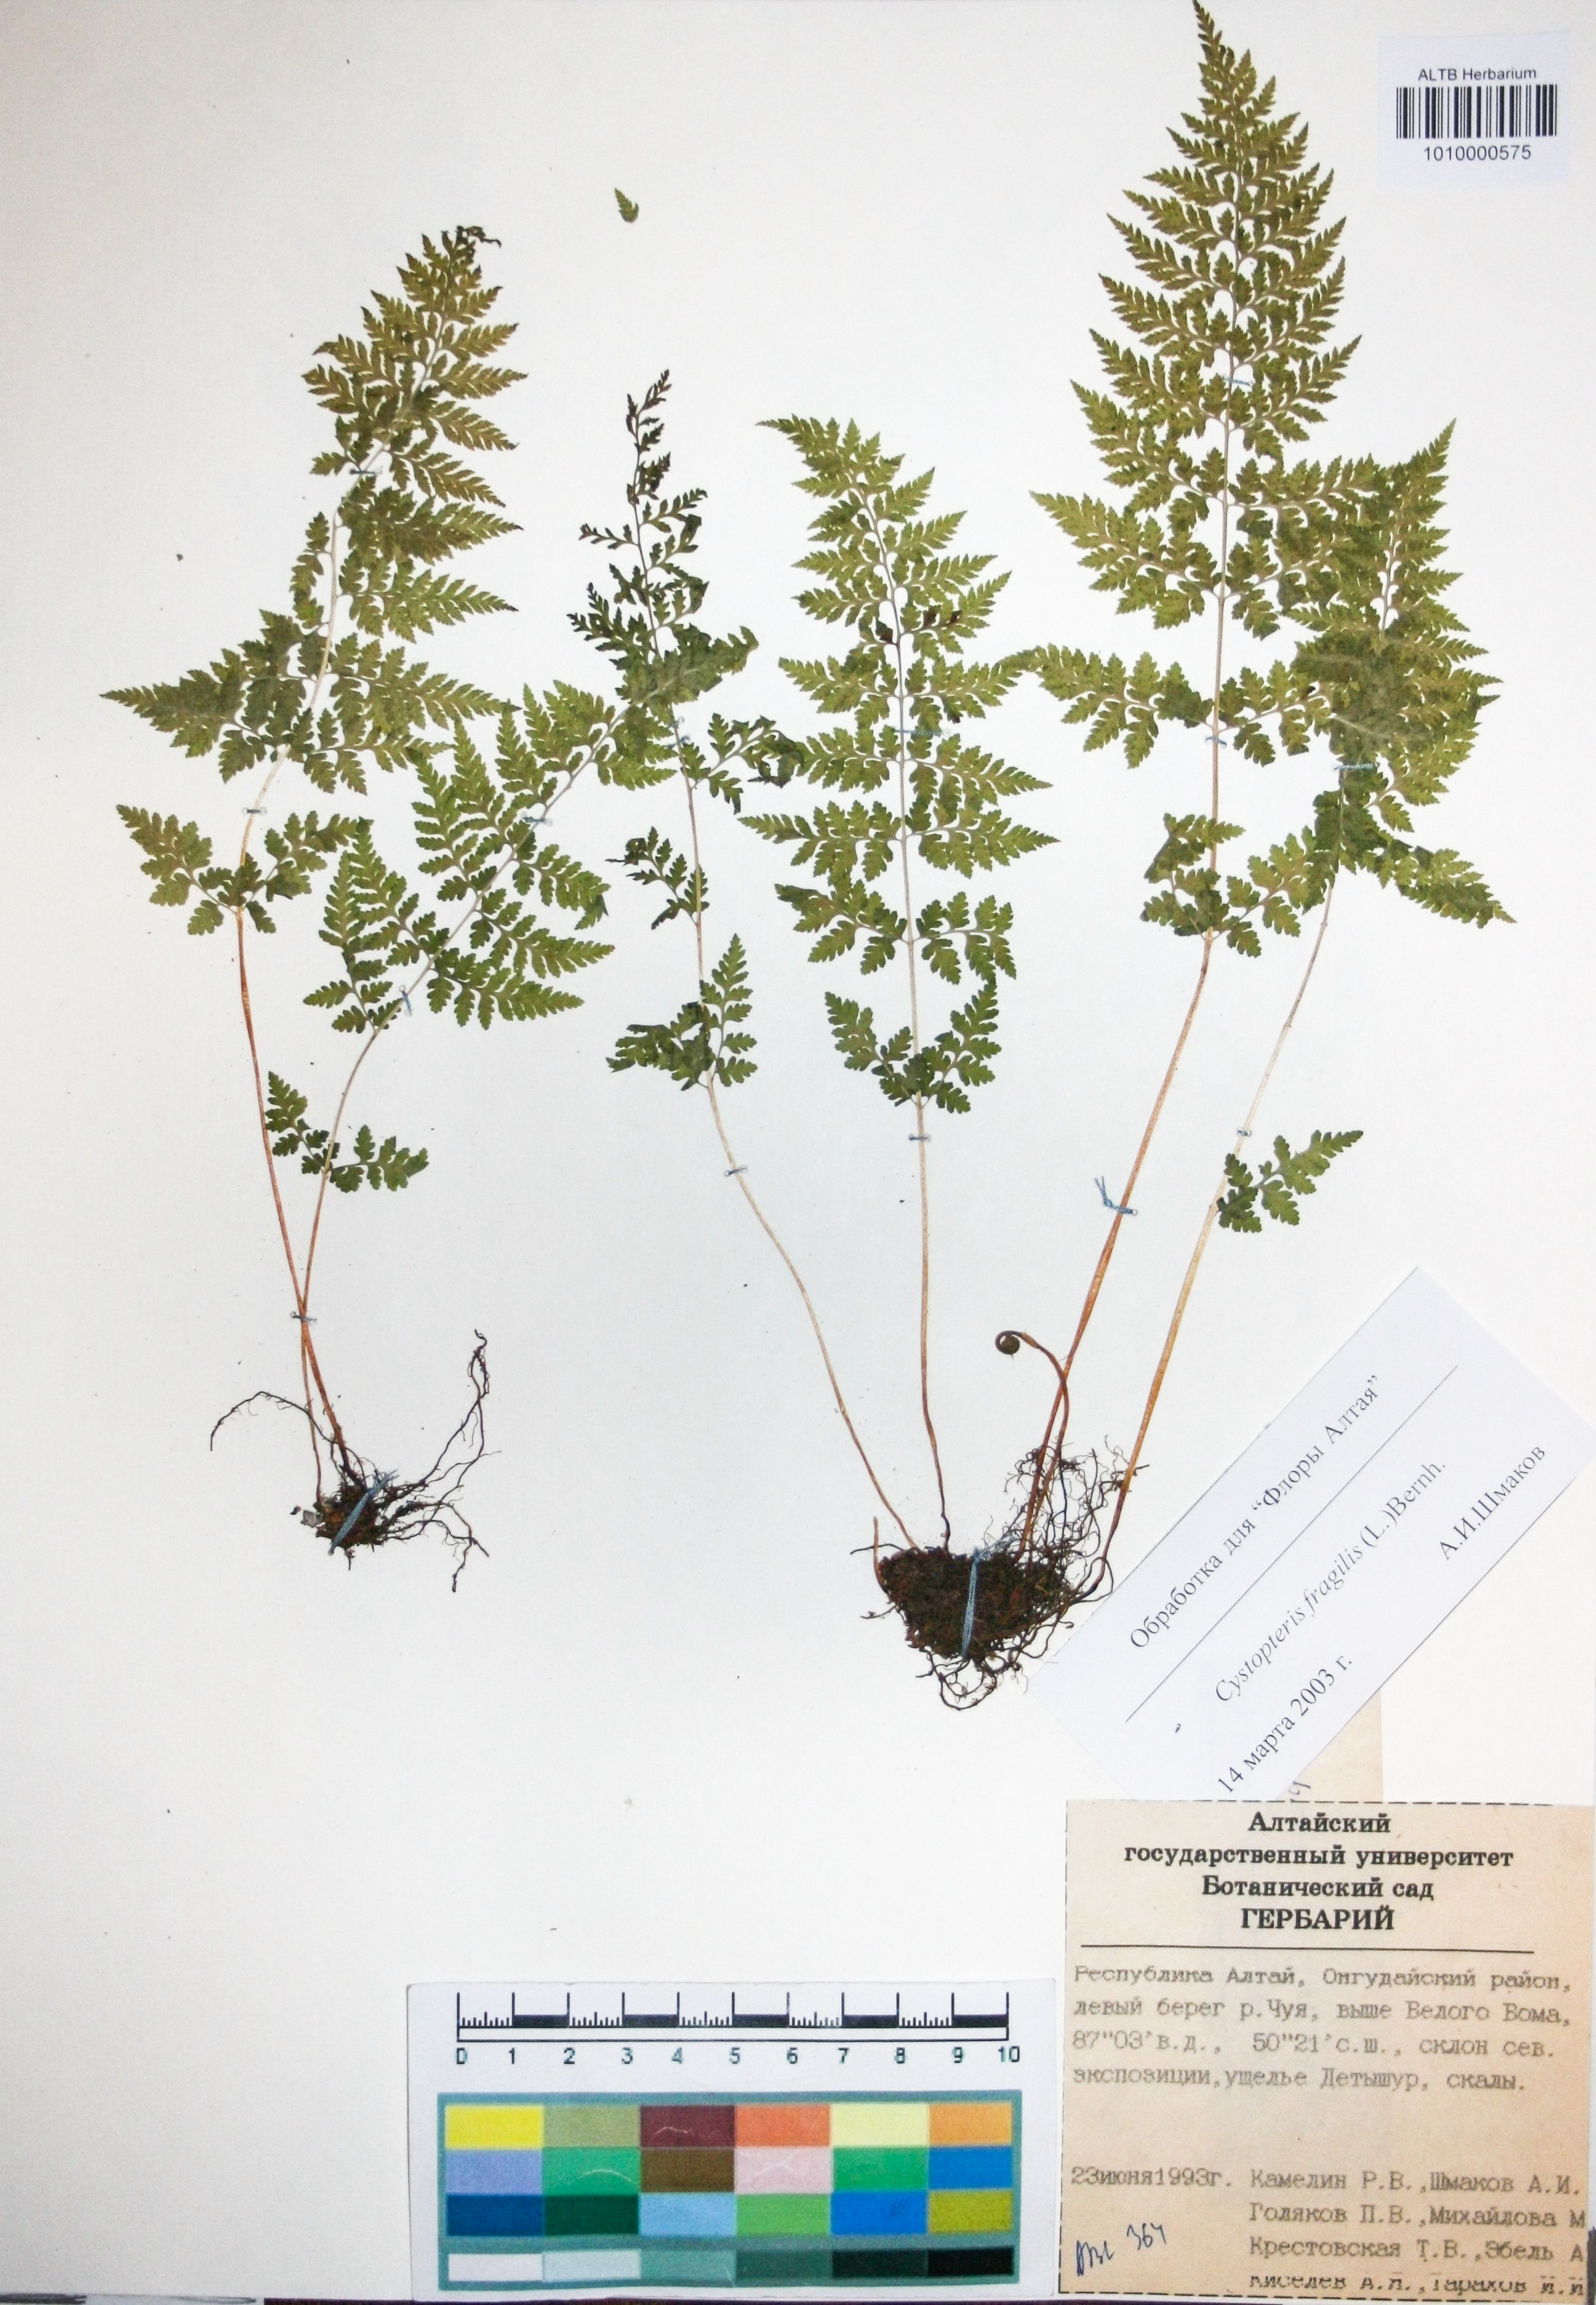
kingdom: Plantae
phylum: Tracheophyta
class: Polypodiopsida
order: Polypodiales
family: Cystopteridaceae
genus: Cystopteris
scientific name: Cystopteris fragilis
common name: Brittle bladder fern
